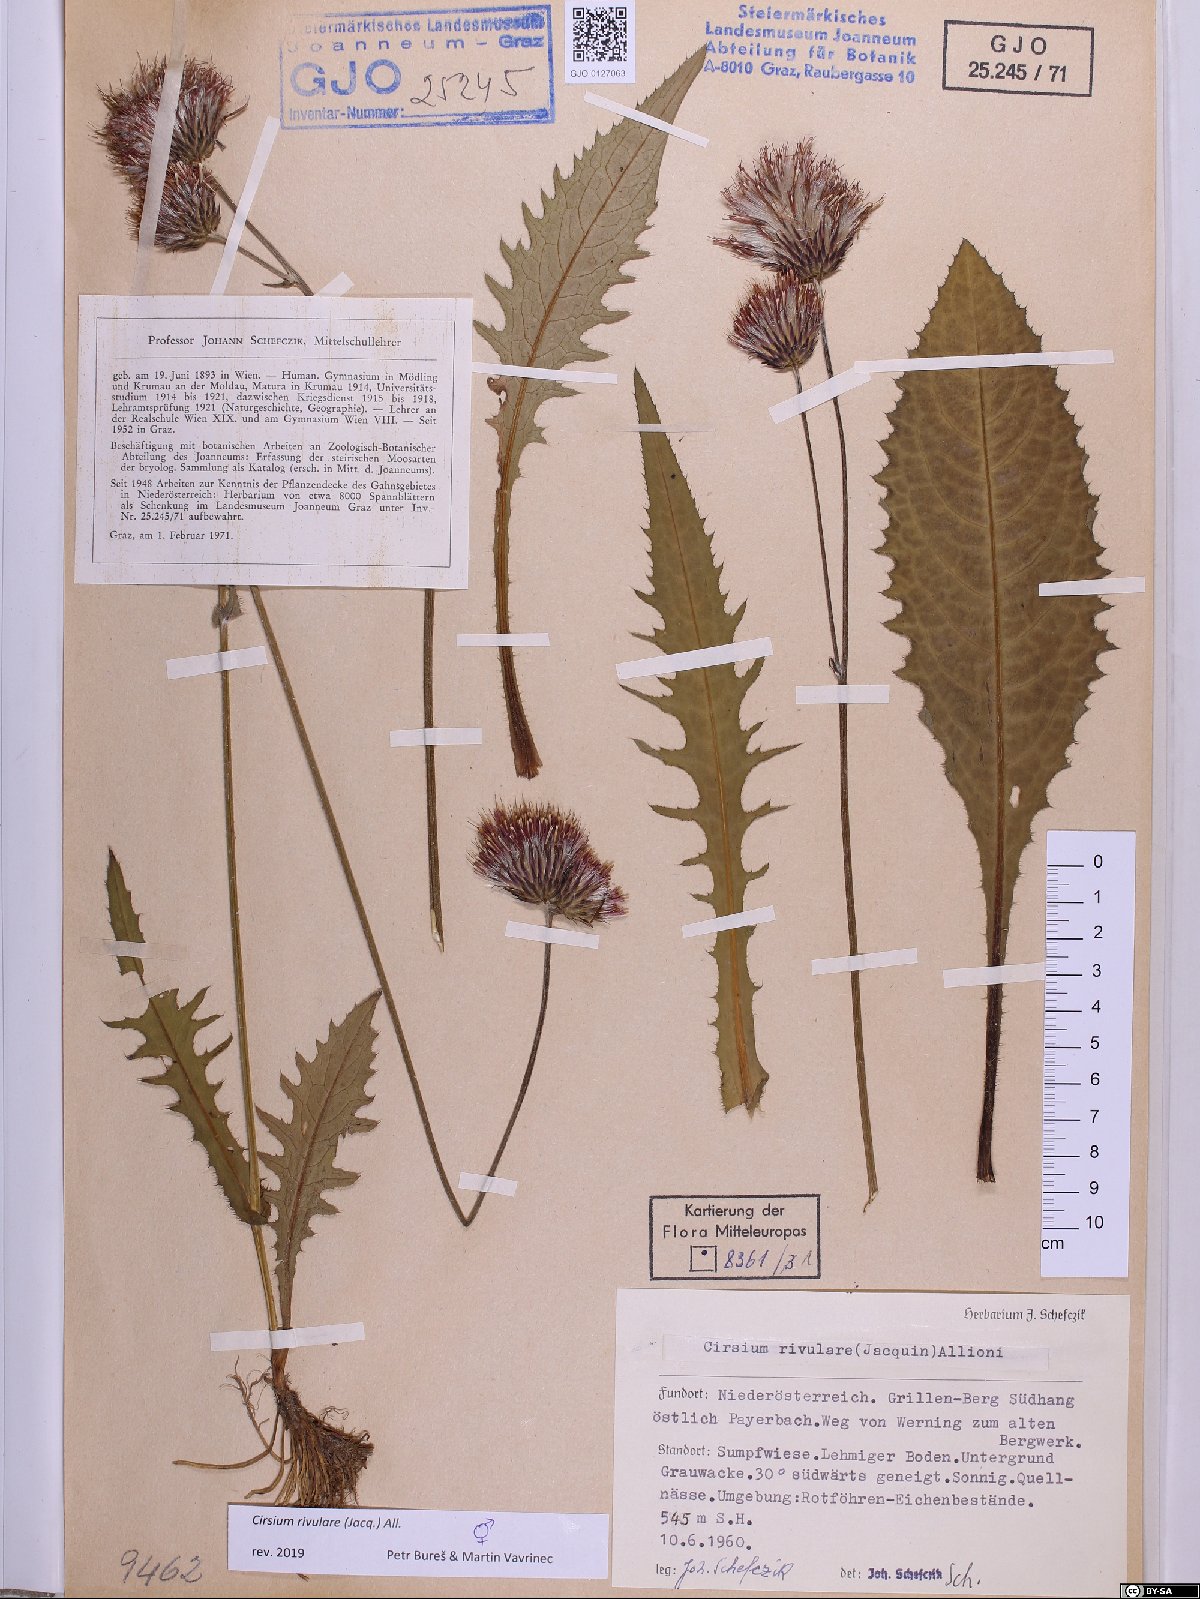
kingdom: Plantae
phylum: Tracheophyta
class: Magnoliopsida
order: Asterales
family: Asteraceae
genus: Cirsium
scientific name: Cirsium rivulare
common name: Brook thistle
